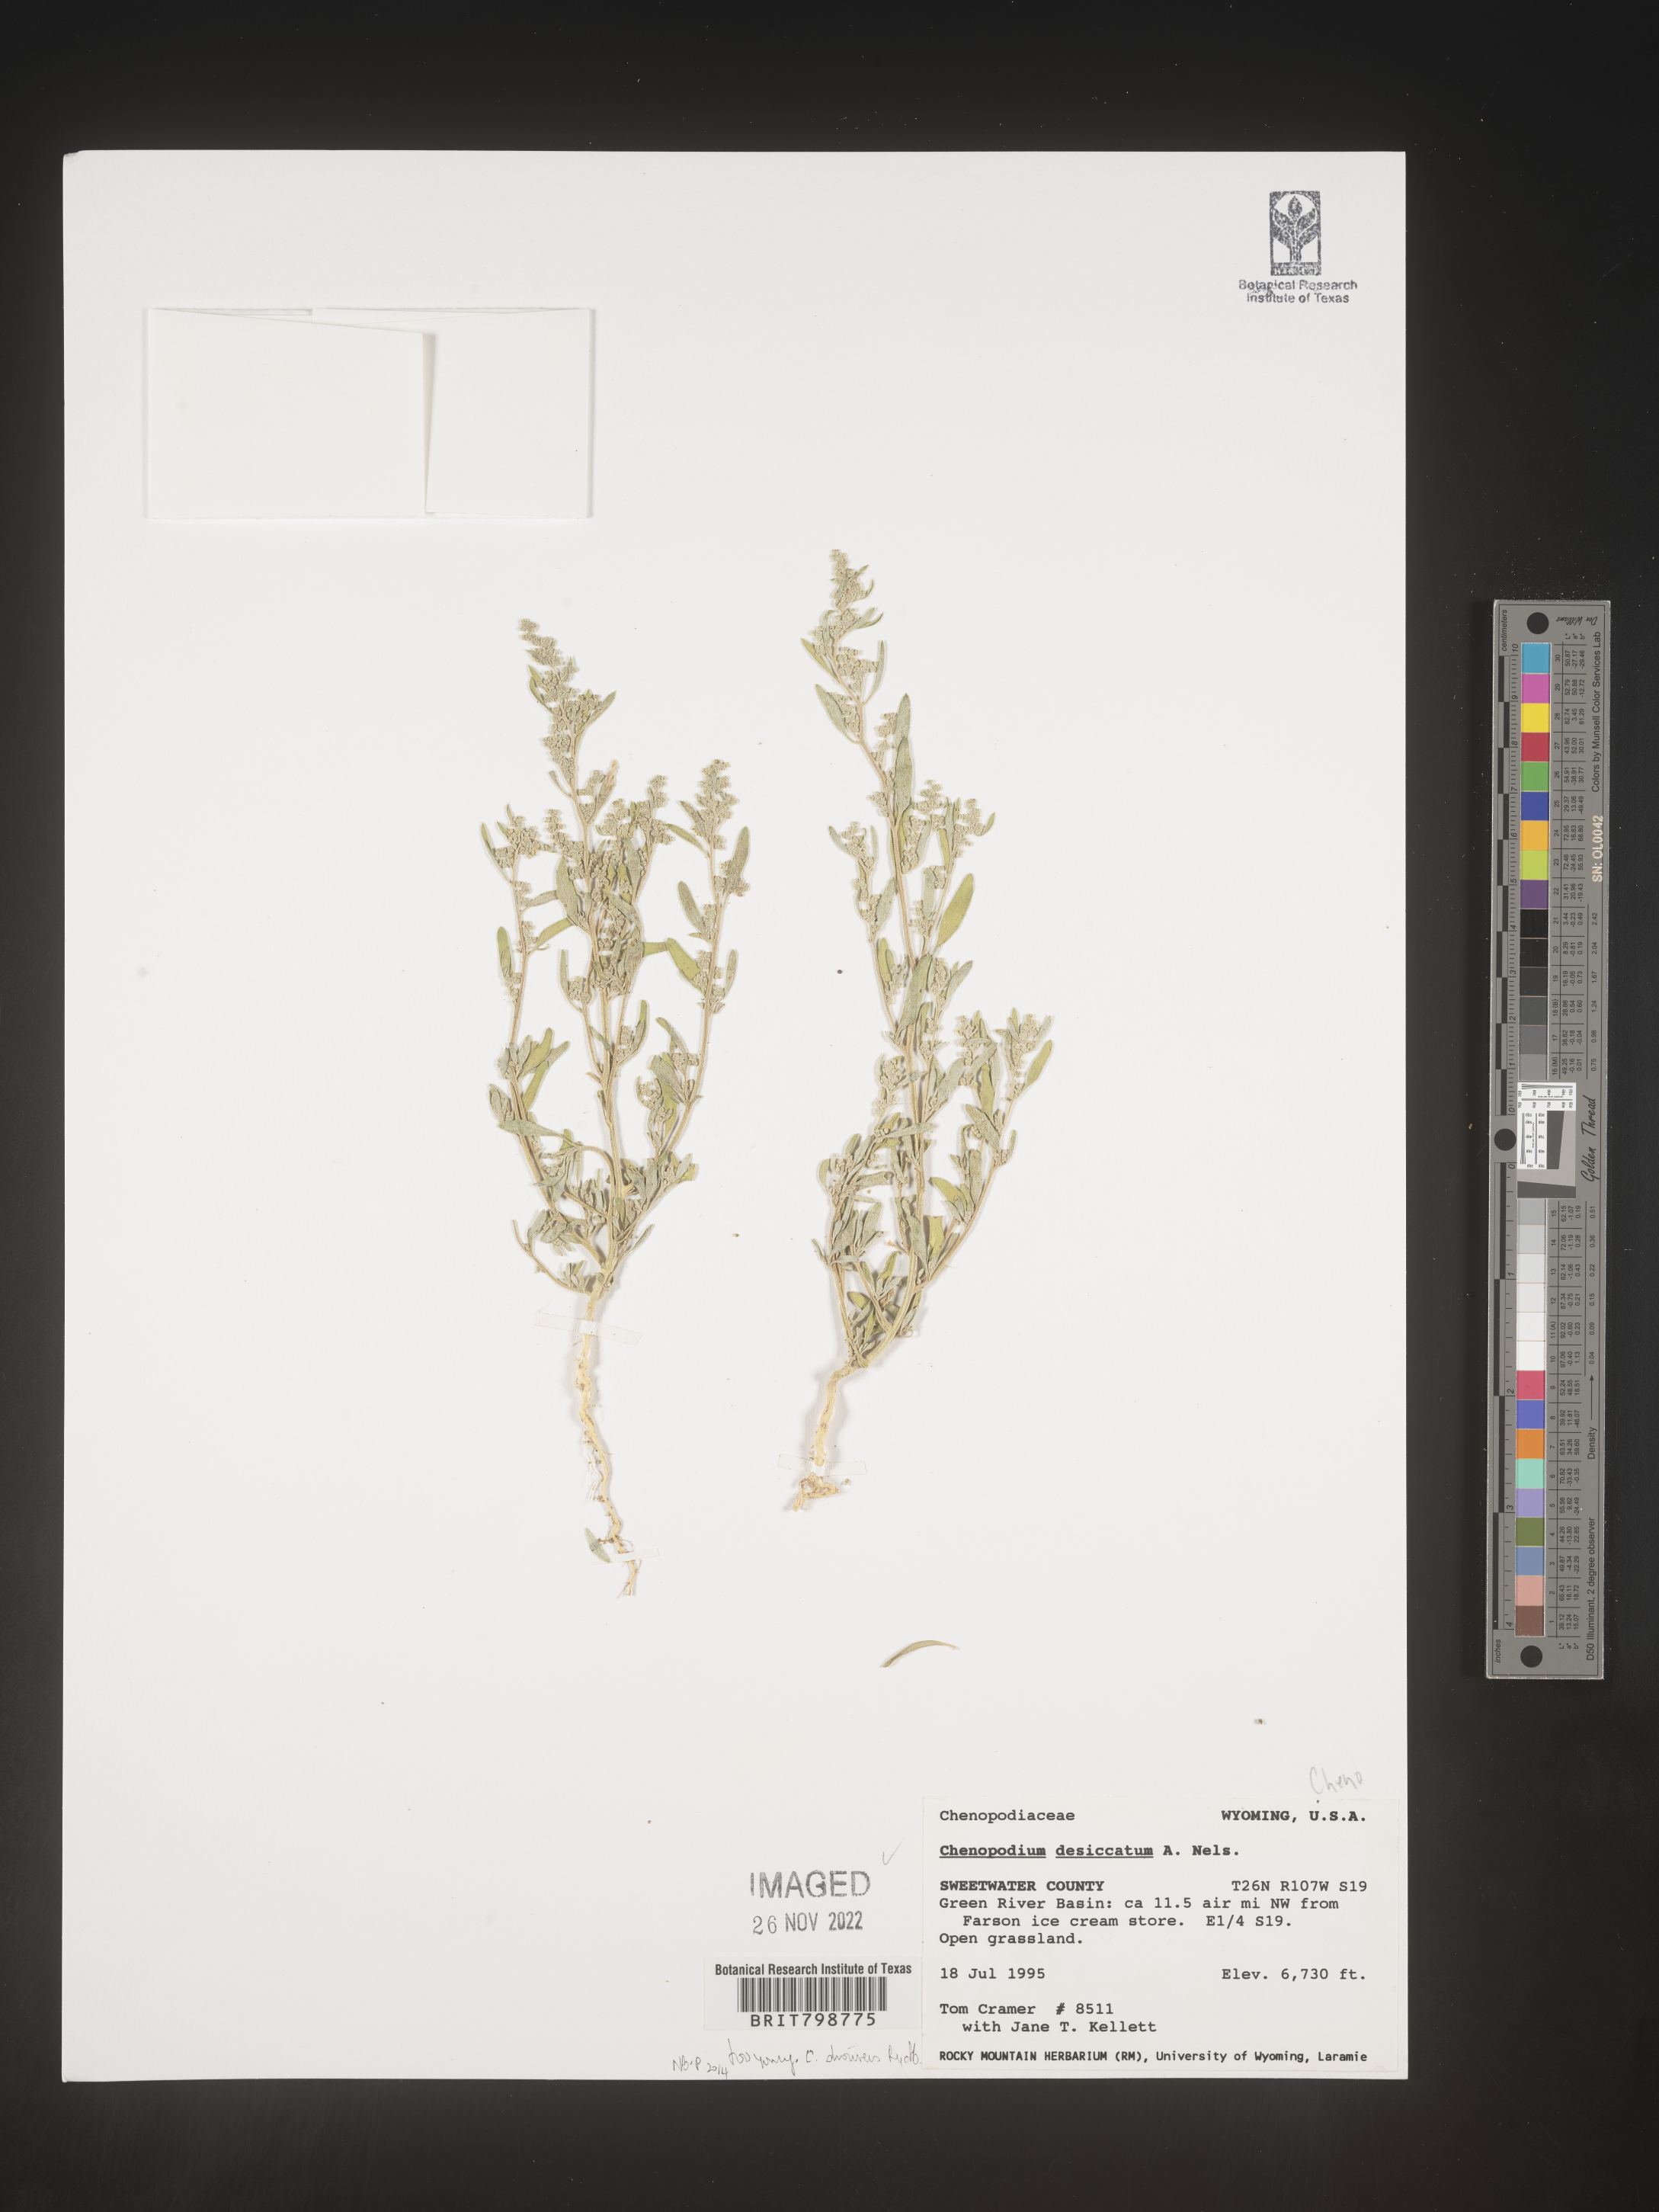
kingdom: Plantae
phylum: Tracheophyta
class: Magnoliopsida
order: Caryophyllales
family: Amaranthaceae
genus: Chenopodium
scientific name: Chenopodium desiccatum
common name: Slimleaf goosefoot
